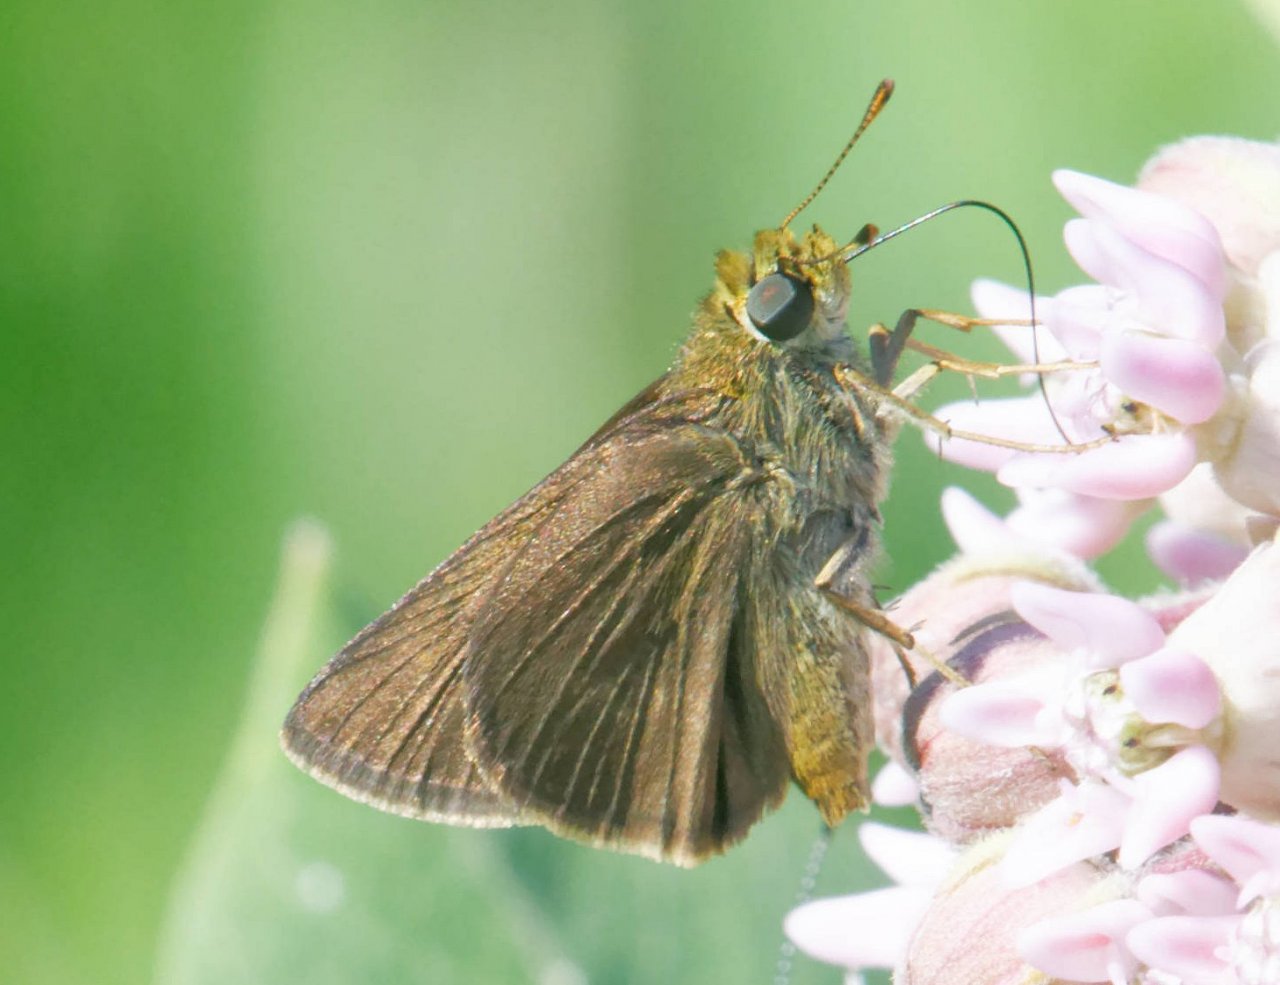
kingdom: Animalia
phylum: Arthropoda
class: Insecta
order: Lepidoptera
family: Hesperiidae
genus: Euphyes
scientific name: Euphyes vestris
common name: Dun Skipper
